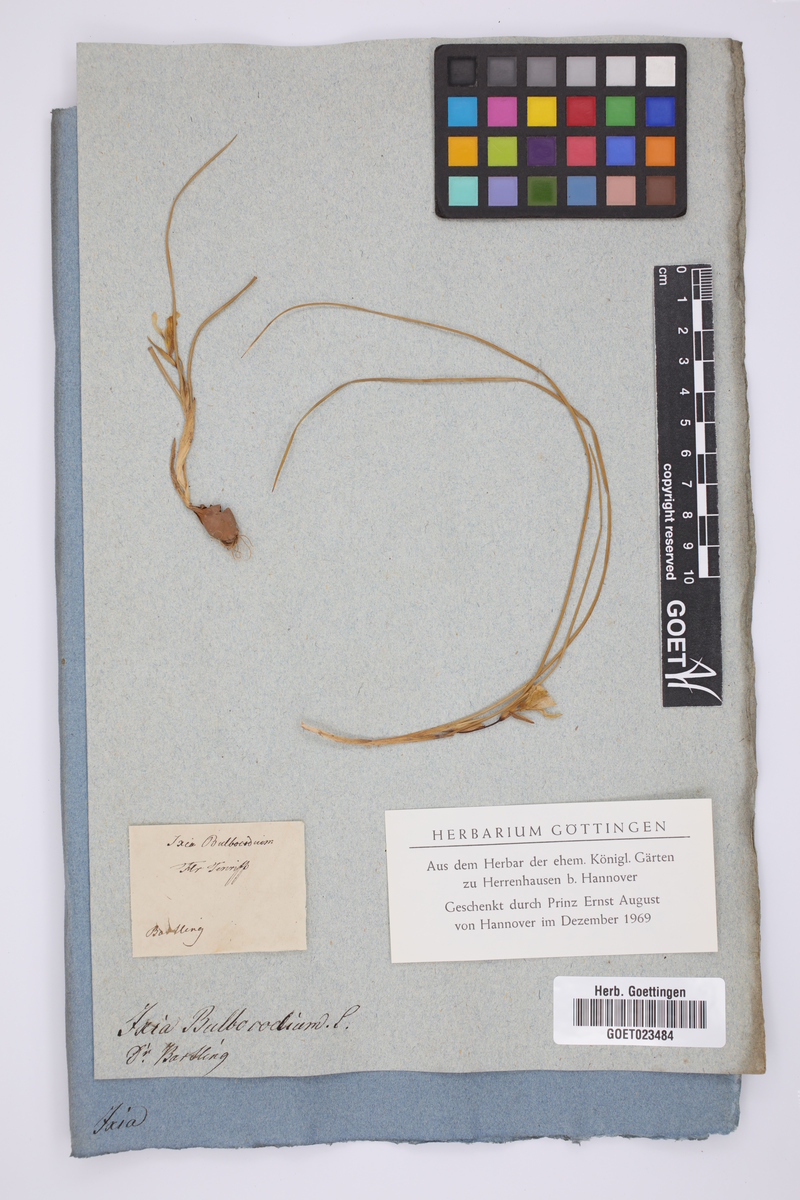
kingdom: Plantae
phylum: Tracheophyta
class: Liliopsida
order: Asparagales
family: Iridaceae
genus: Romulea
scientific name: Romulea bulbocodium
